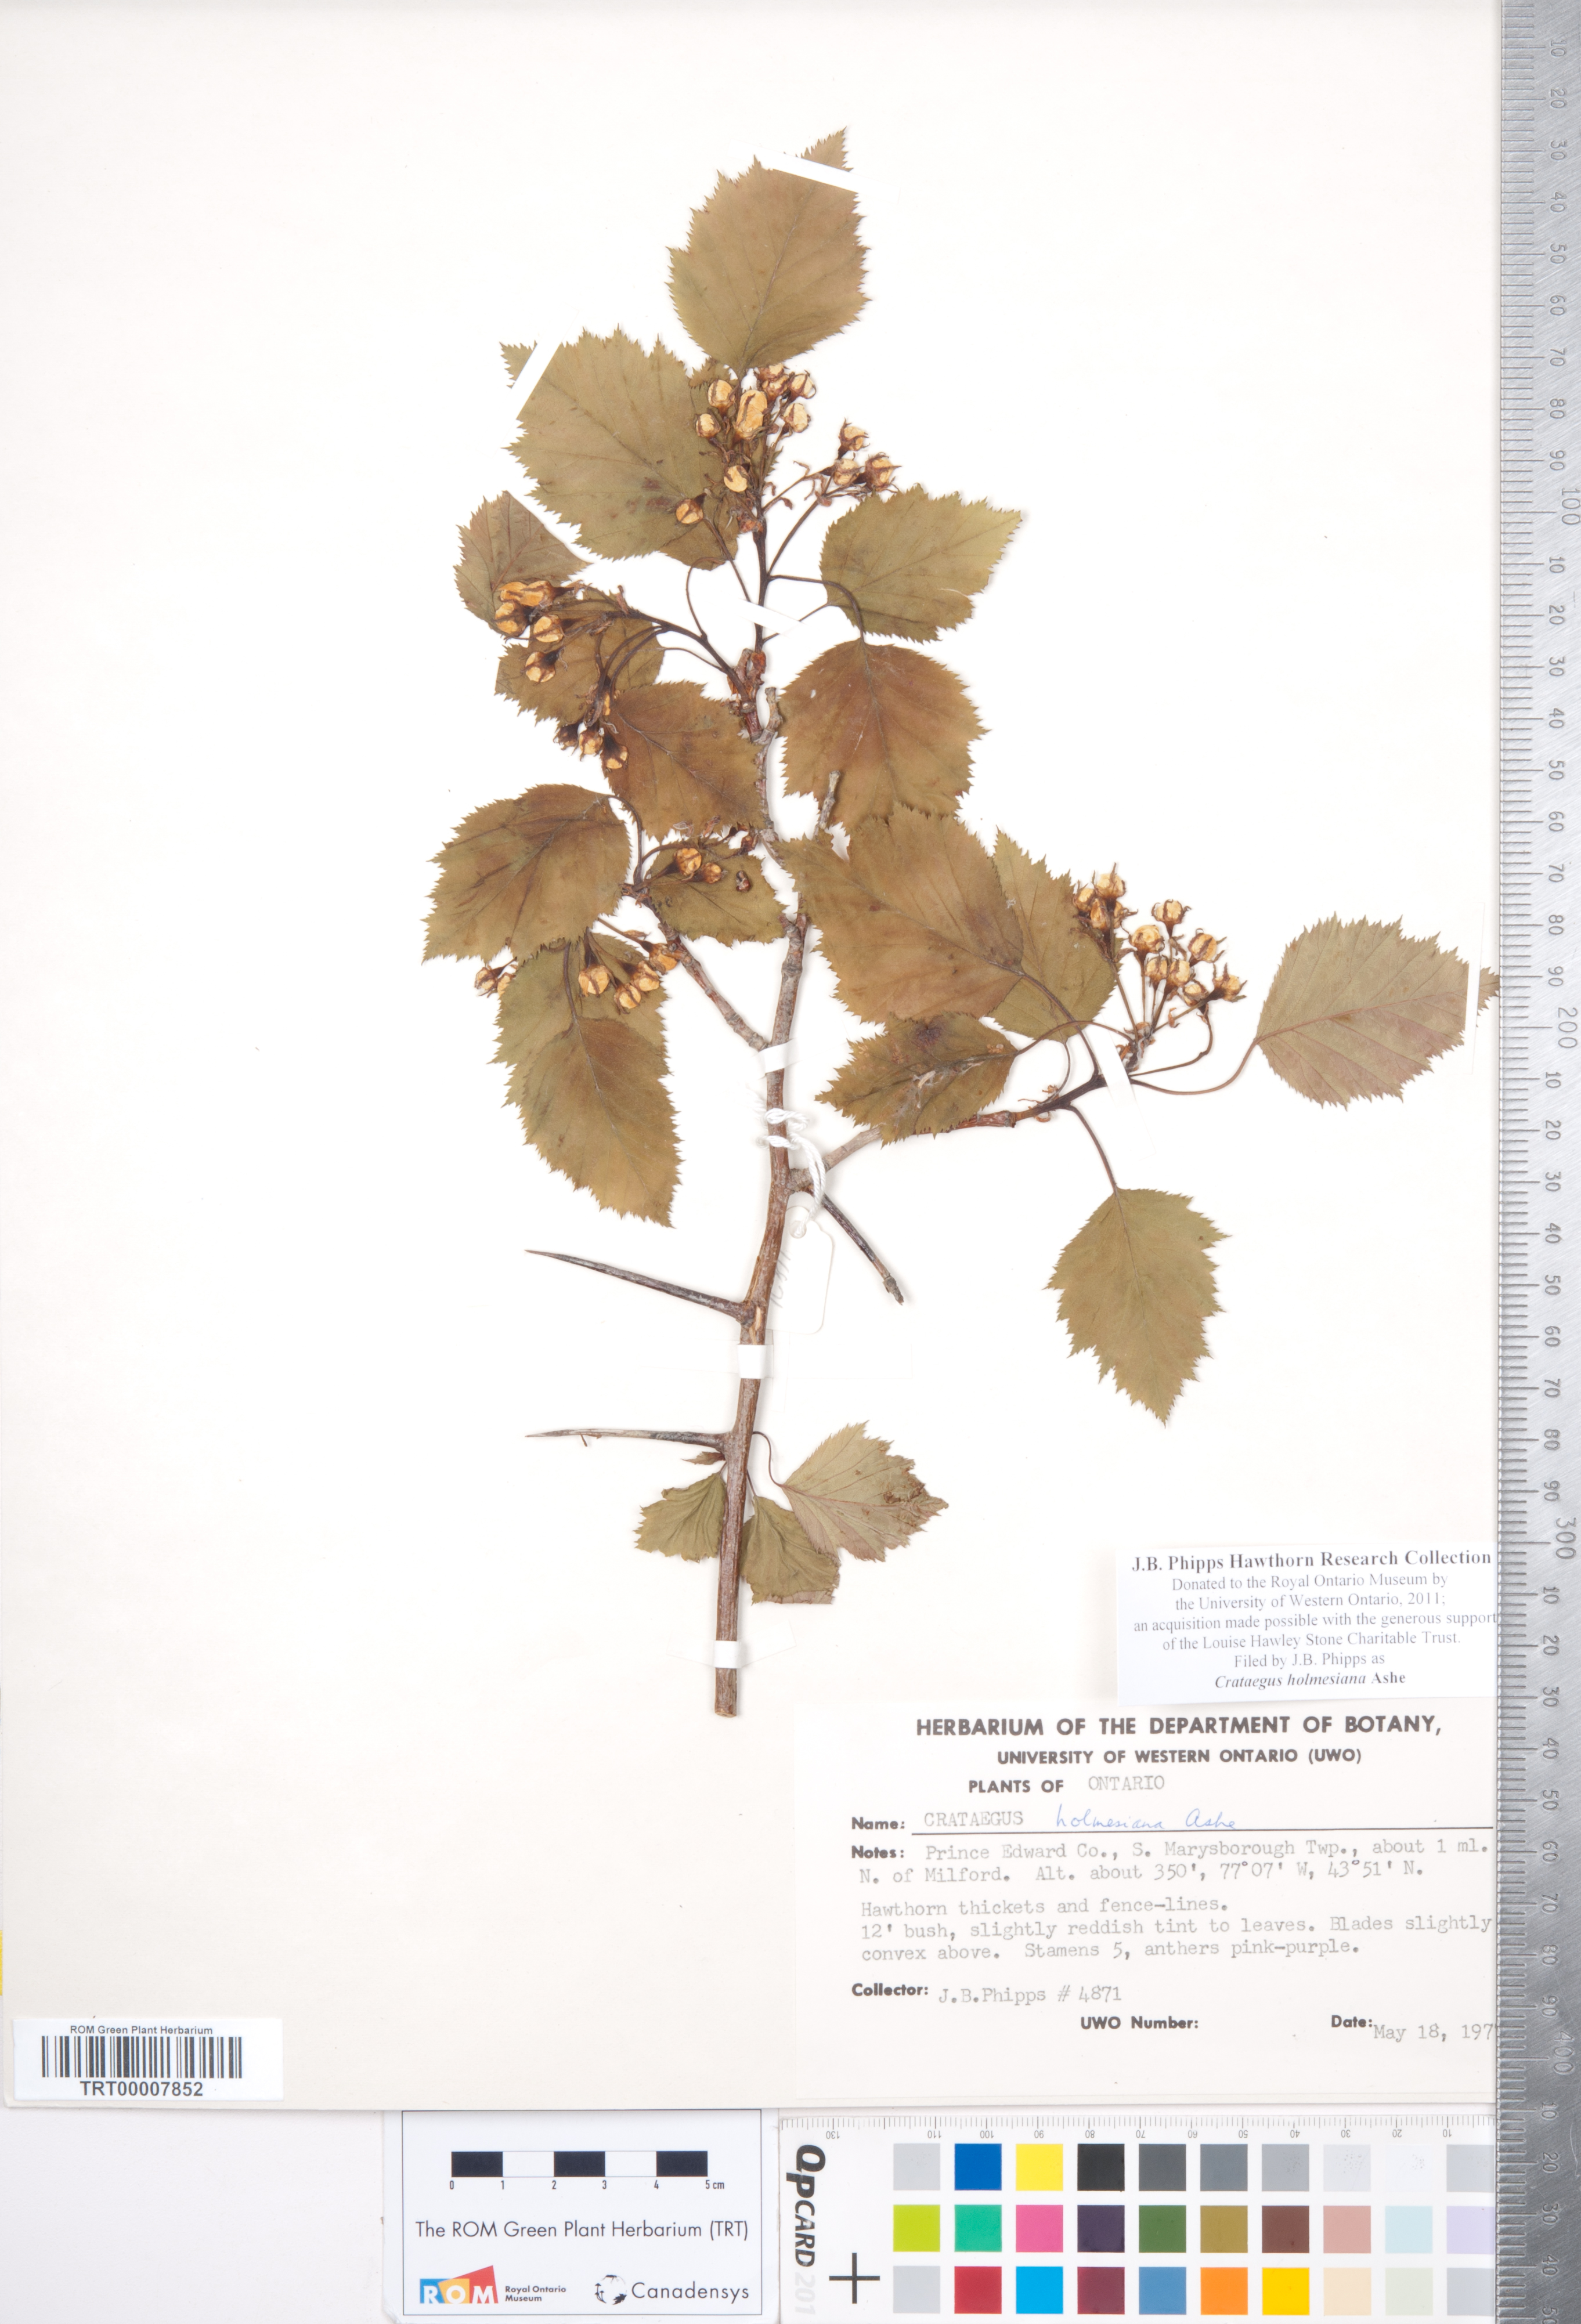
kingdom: Plantae
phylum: Tracheophyta
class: Magnoliopsida
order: Rosales
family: Rosaceae
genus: Crataegus
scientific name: Crataegus holmesiana
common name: Holmes' hawthorn
